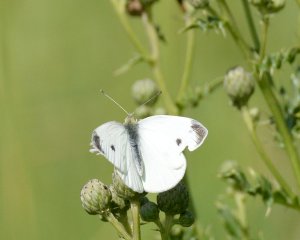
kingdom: Animalia
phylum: Arthropoda
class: Insecta
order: Lepidoptera
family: Pieridae
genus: Pieris
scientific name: Pieris rapae
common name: Cabbage White
